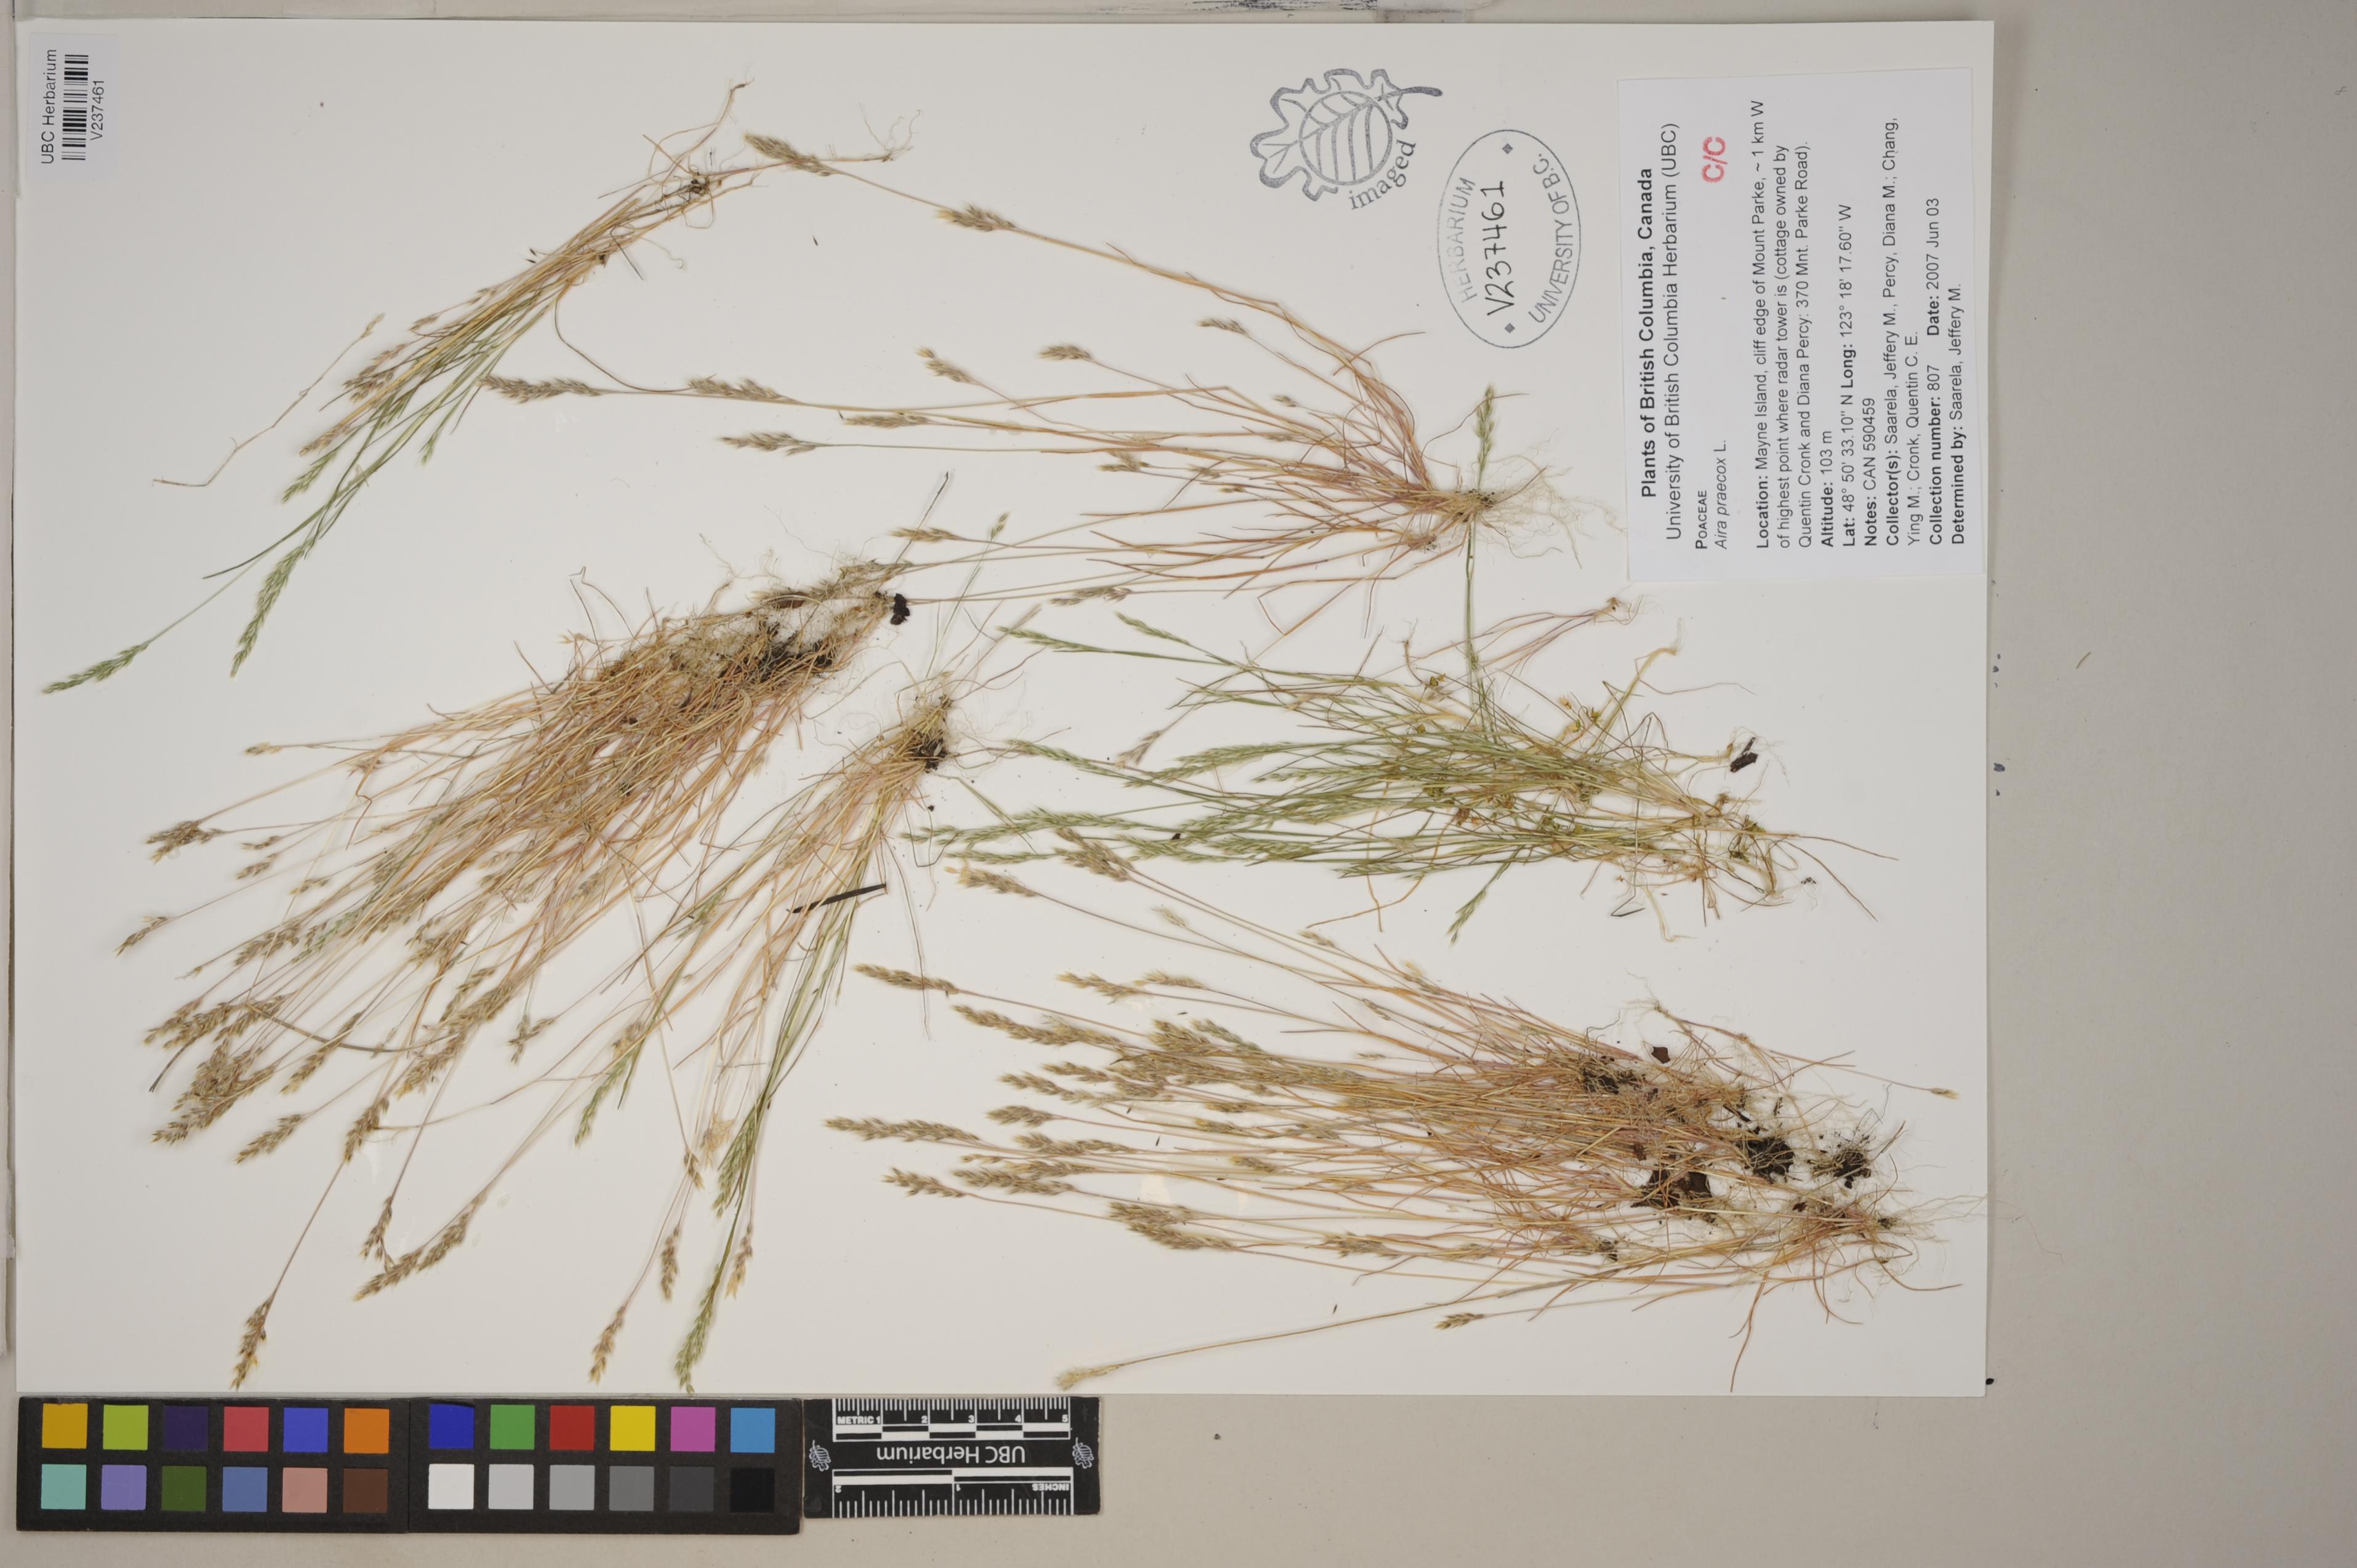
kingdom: Plantae
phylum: Tracheophyta
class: Liliopsida
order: Poales
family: Poaceae
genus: Aira
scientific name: Aira praecox
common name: Early hair-grass
